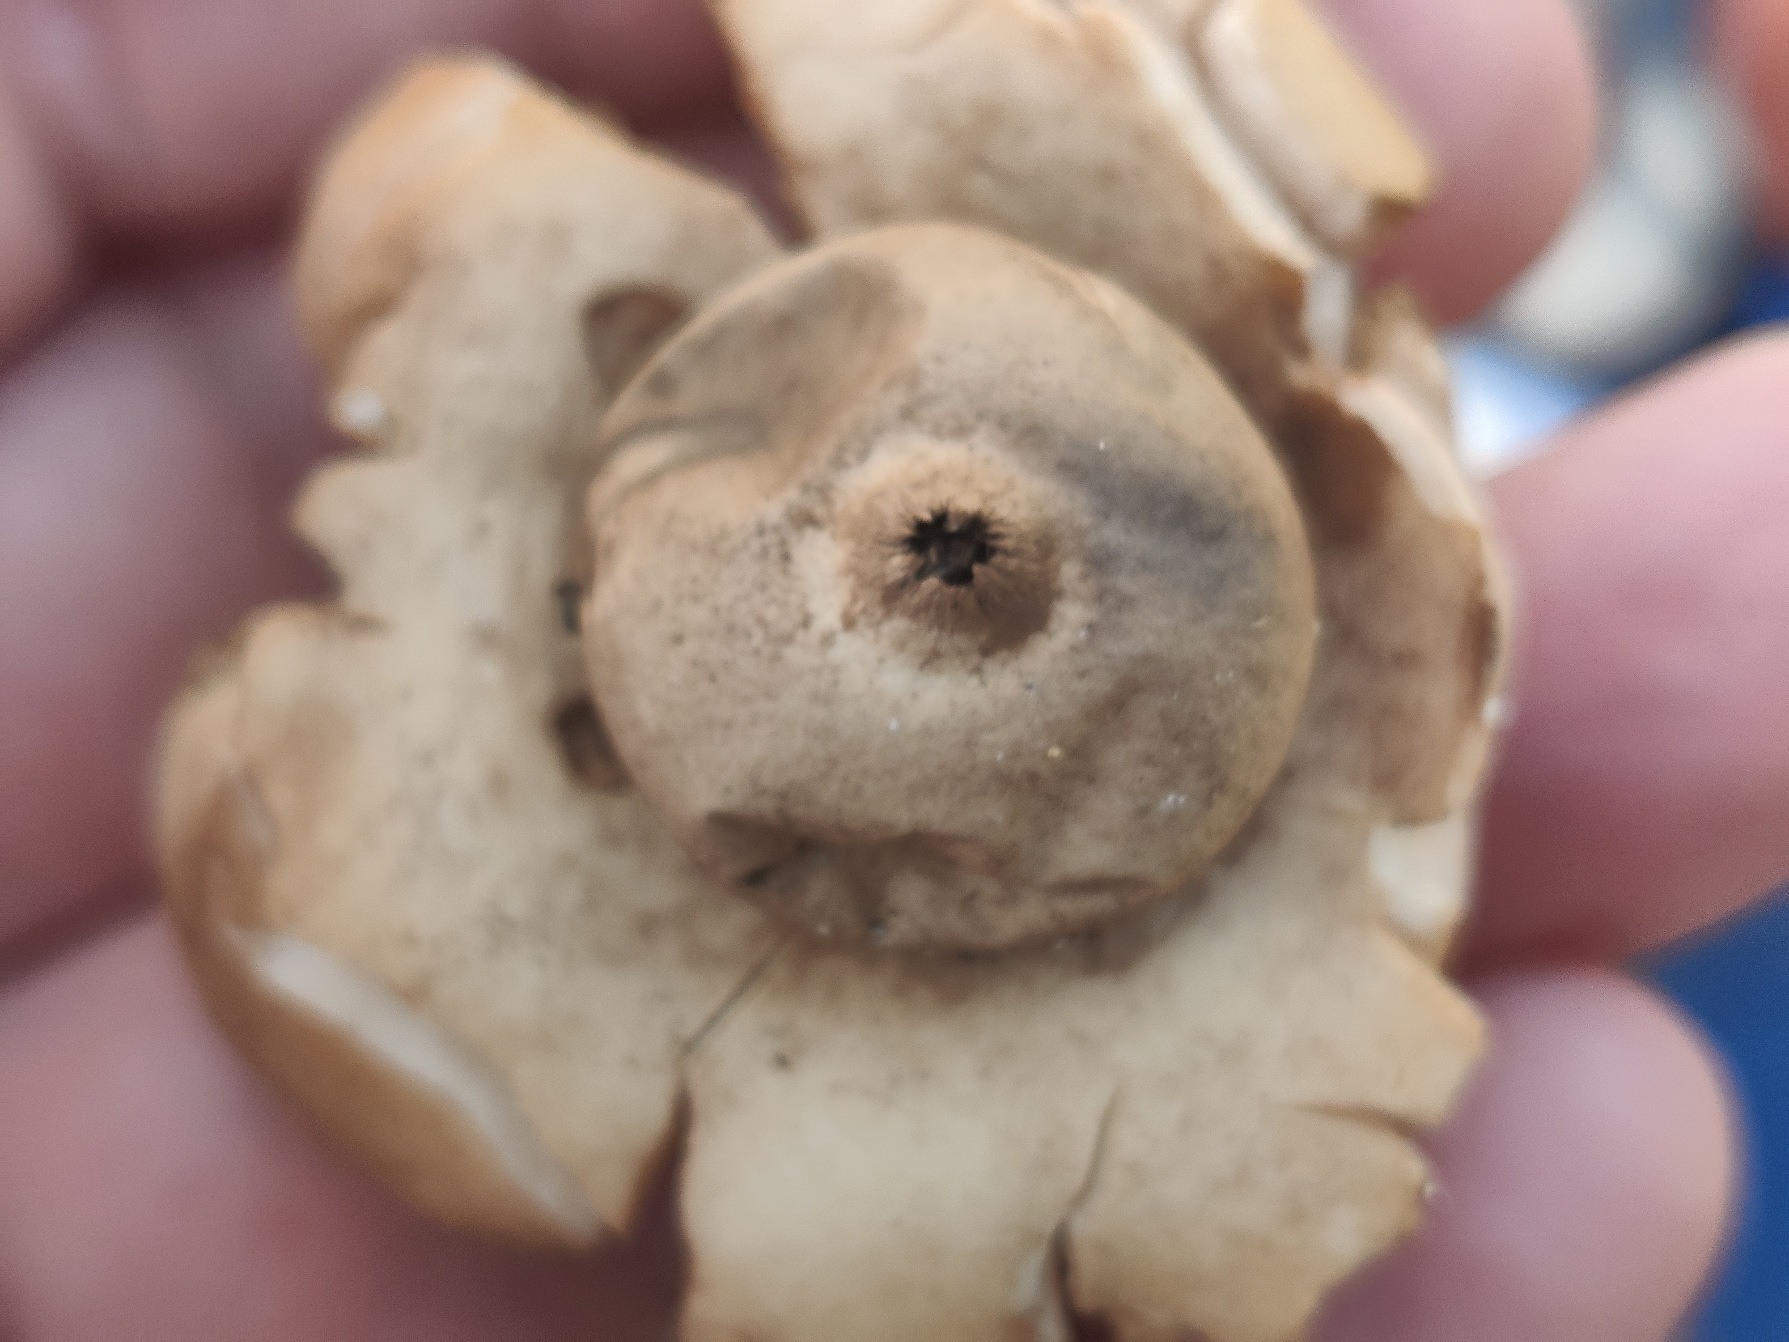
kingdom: Fungi
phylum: Basidiomycota
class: Agaricomycetes
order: Geastrales
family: Geastraceae
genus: Geastrum
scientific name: Geastrum michelianum
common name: Kødet stjernebold
